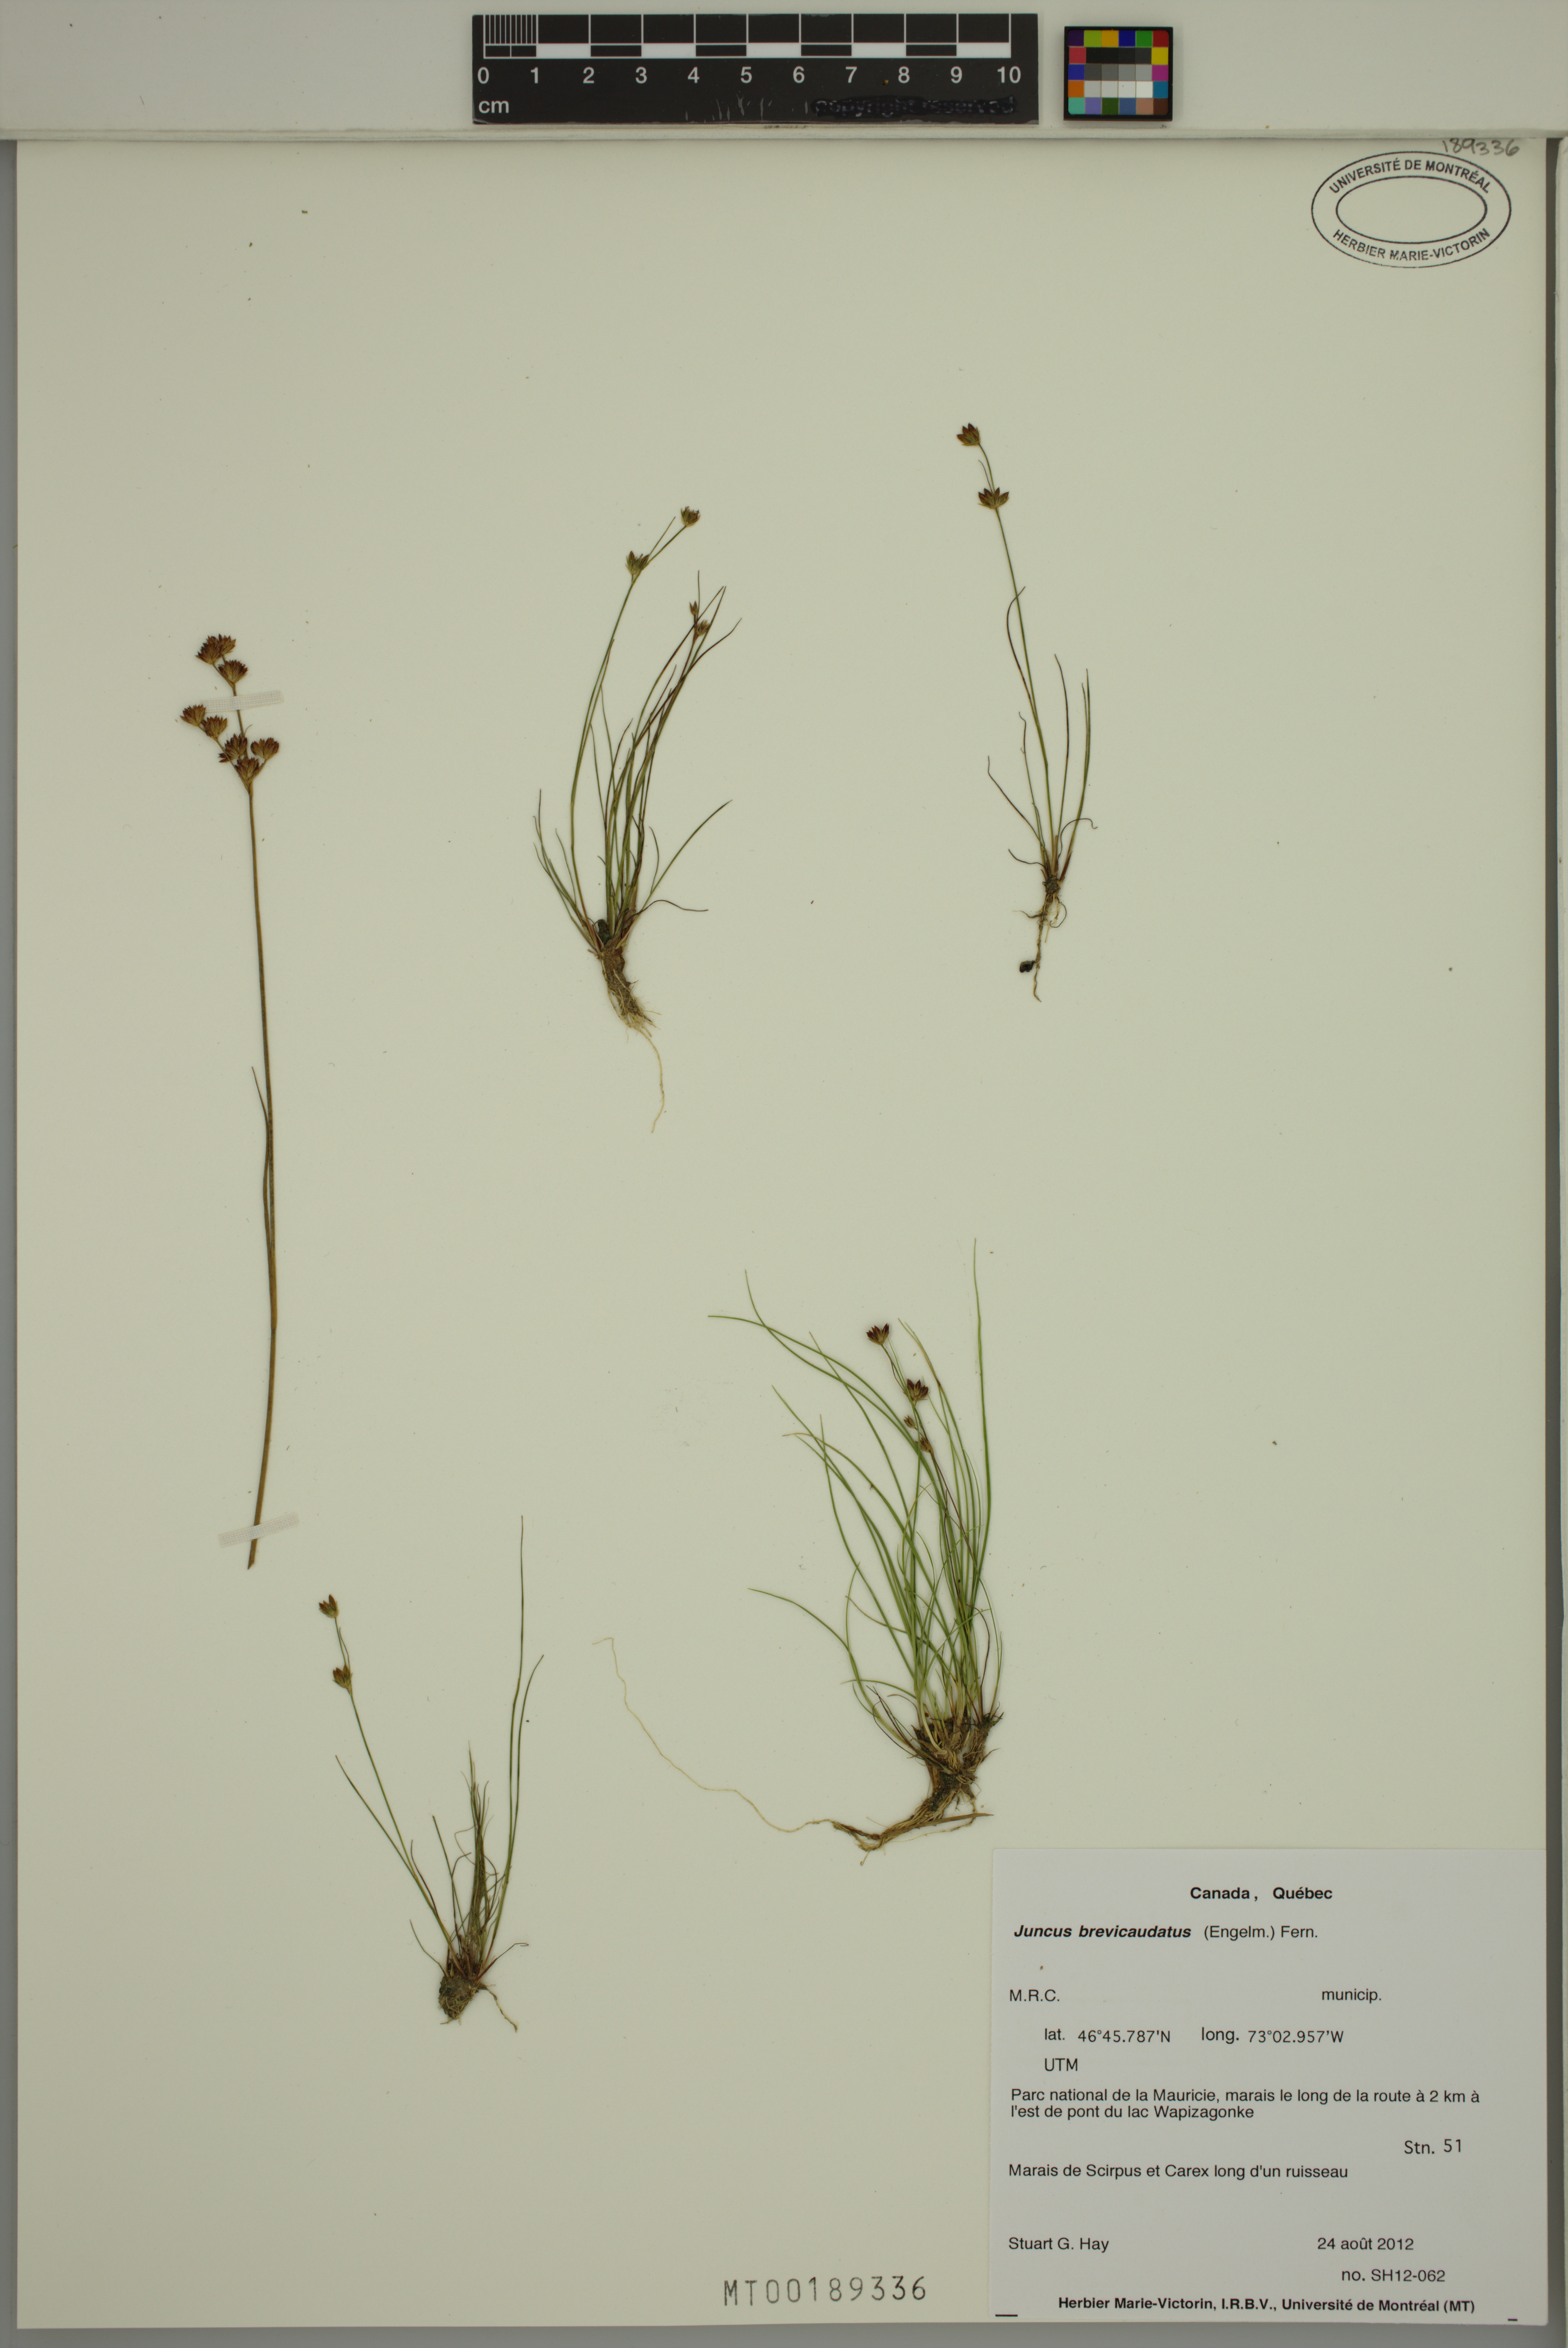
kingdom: Plantae
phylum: Tracheophyta
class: Liliopsida
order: Poales
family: Juncaceae
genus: Juncus
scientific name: Juncus brevicaudatus
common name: Narrow-panicle rush
